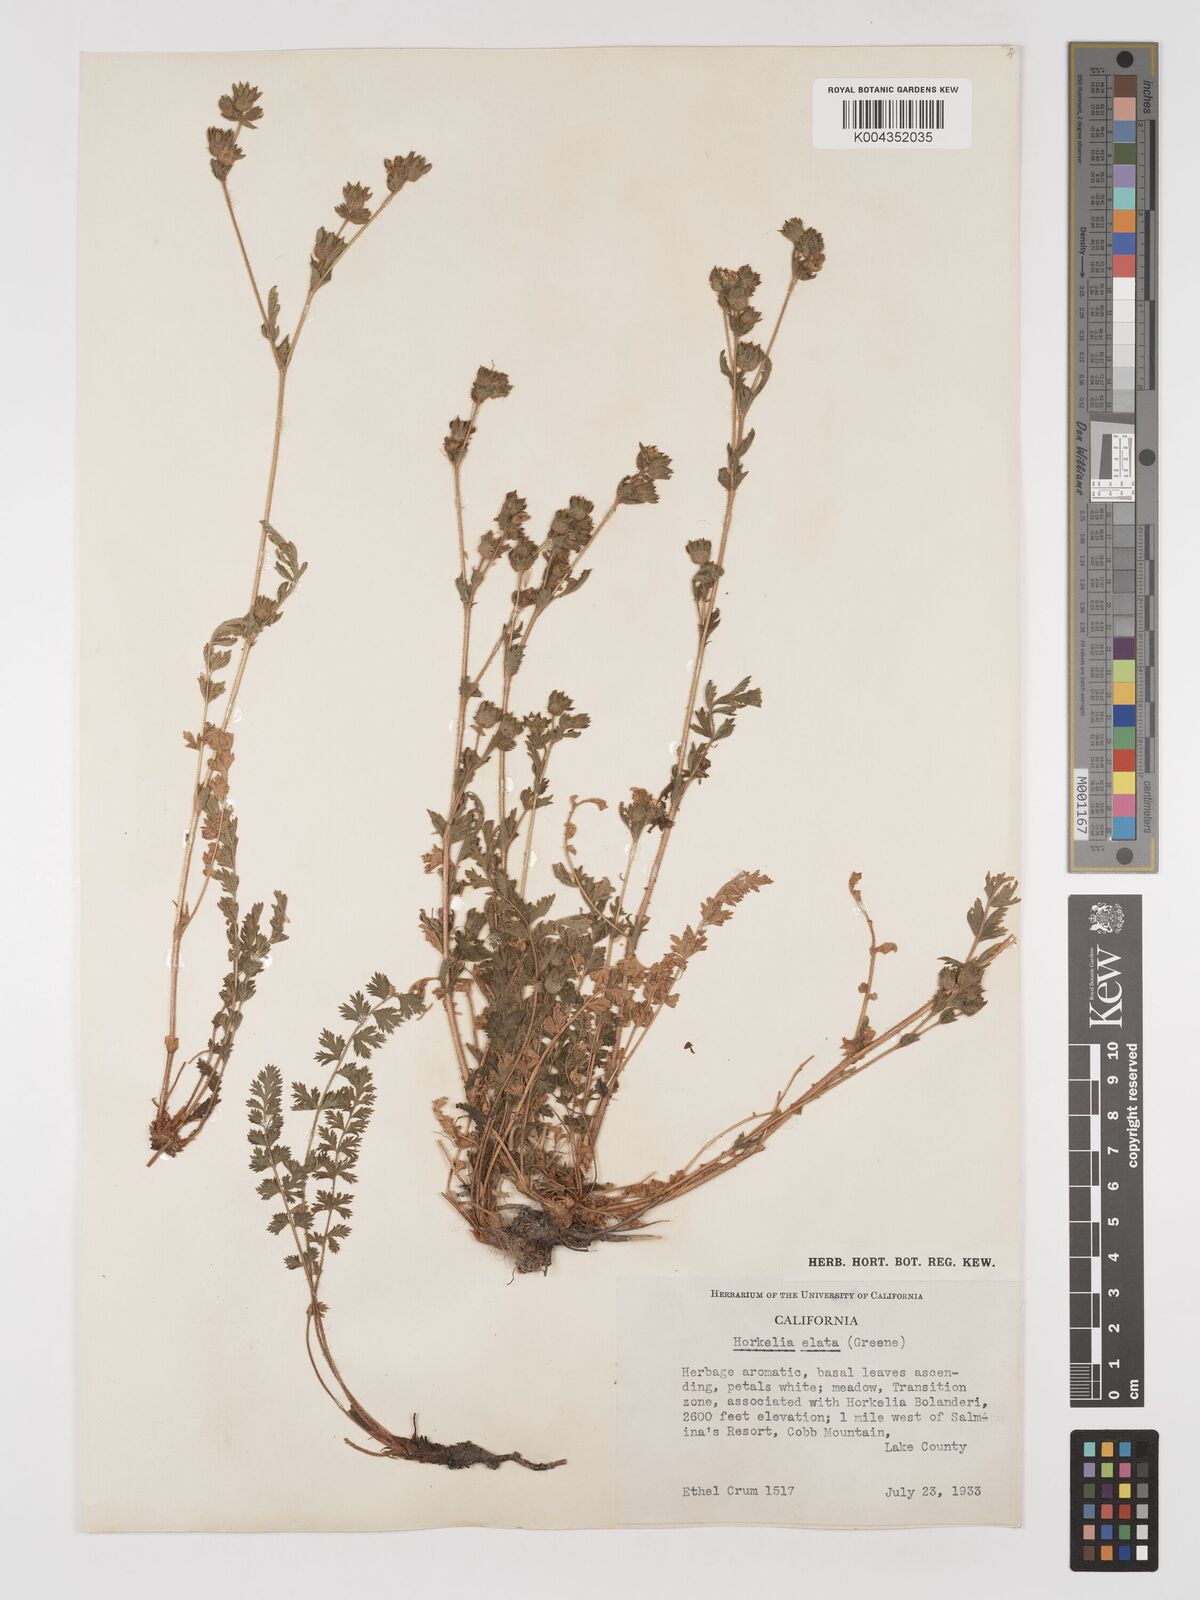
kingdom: Plantae
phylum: Tracheophyta
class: Magnoliopsida
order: Rosales
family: Rosaceae
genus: Potentilla
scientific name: Potentilla californica
